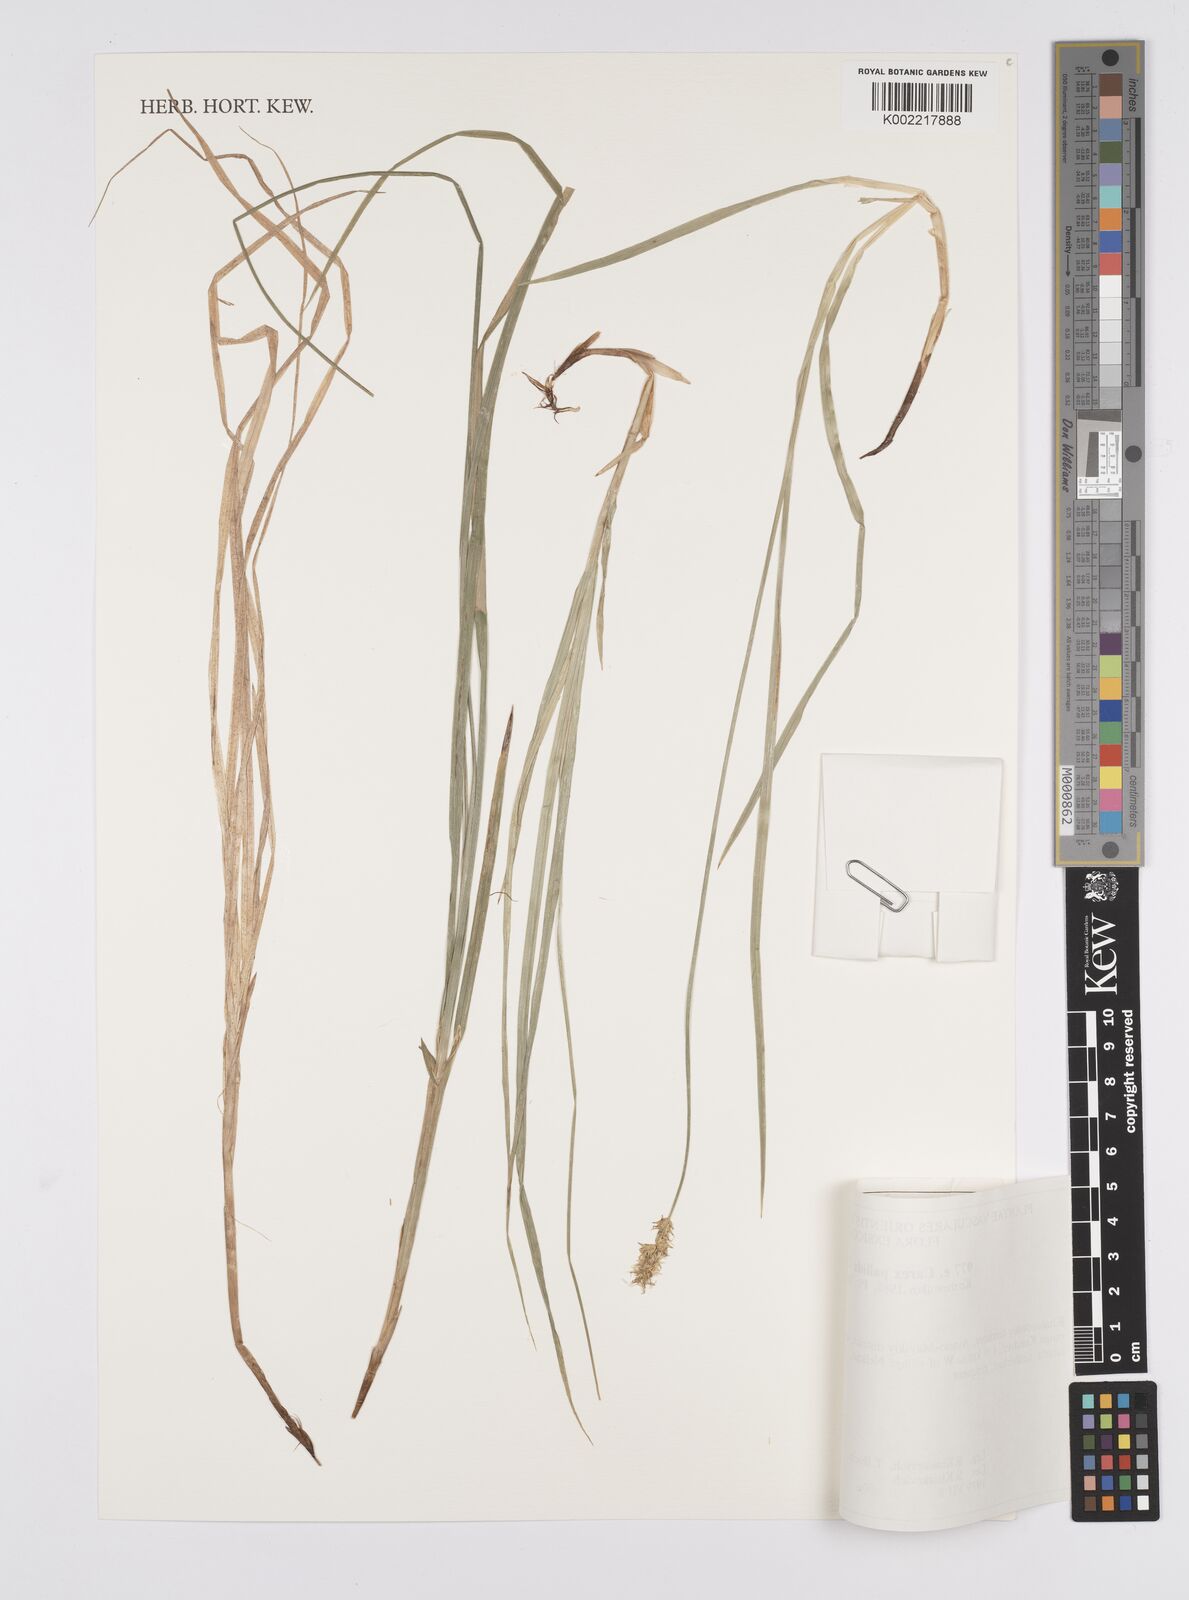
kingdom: Plantae
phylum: Tracheophyta
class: Liliopsida
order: Poales
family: Cyperaceae
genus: Carex
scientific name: Carex accrescens
